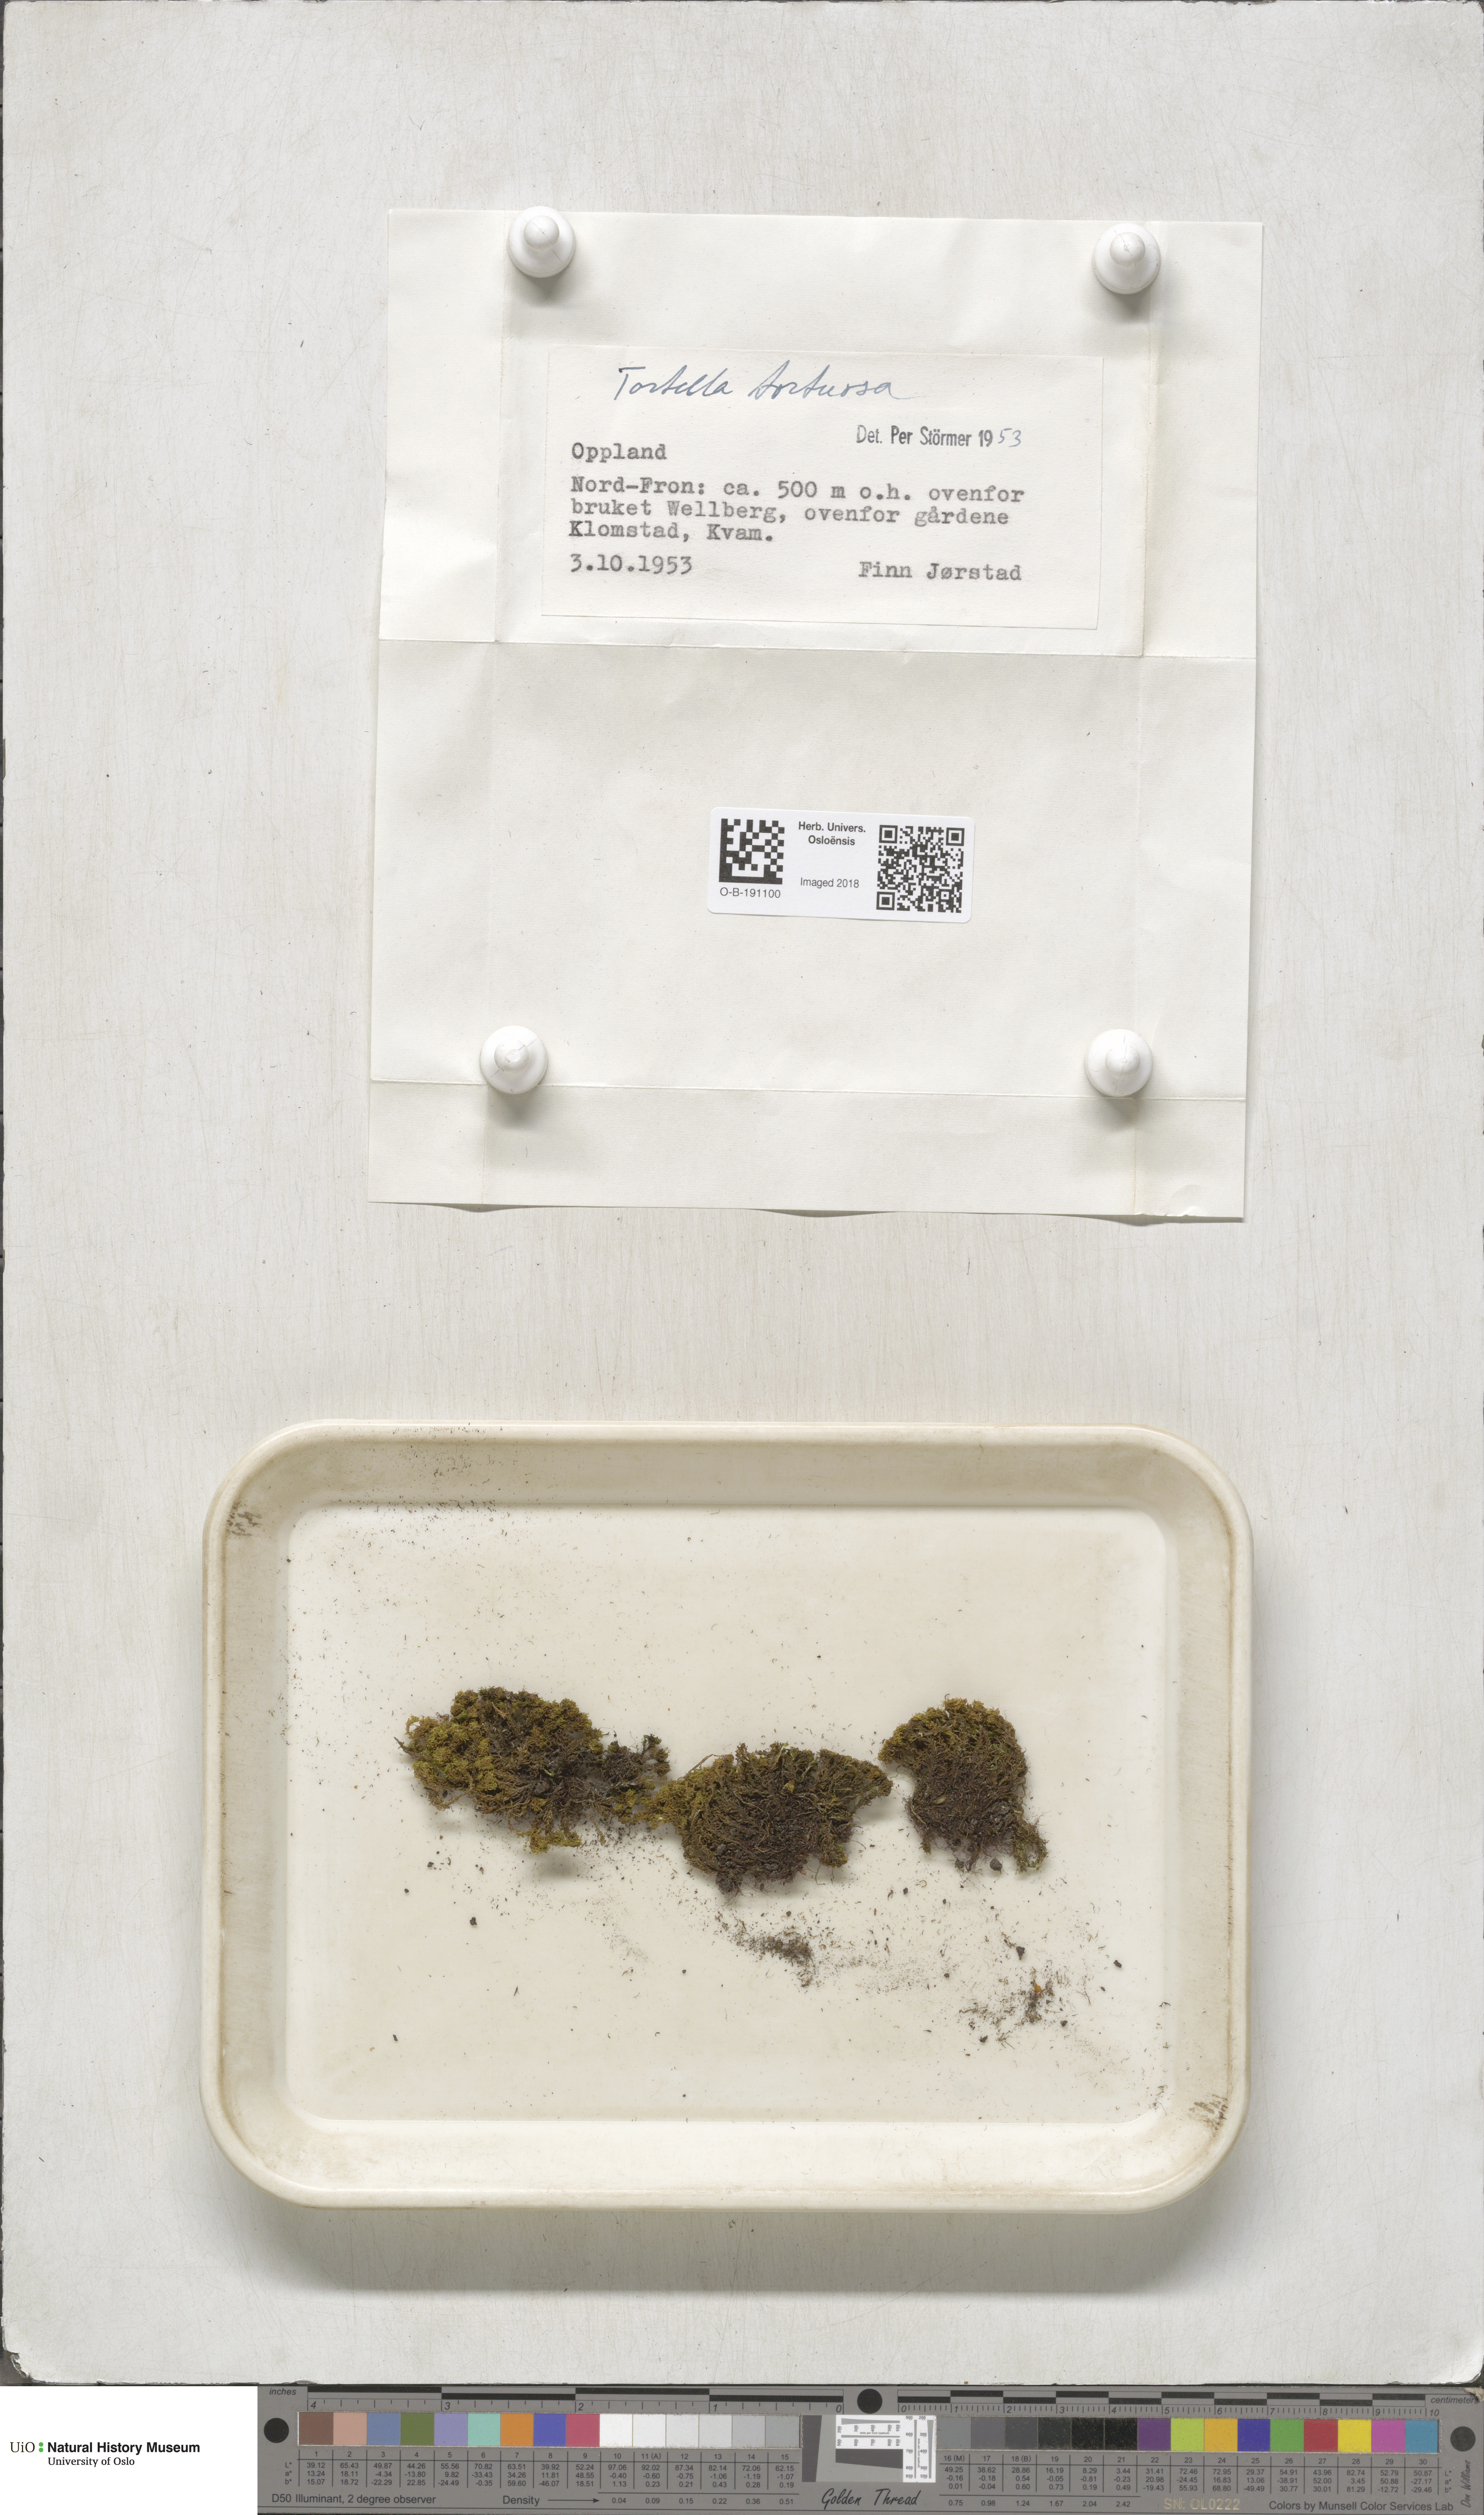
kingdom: Plantae
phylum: Bryophyta
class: Bryopsida
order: Pottiales
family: Pottiaceae
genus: Tortella
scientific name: Tortella tortuosa
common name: Frizzled crisp moss
